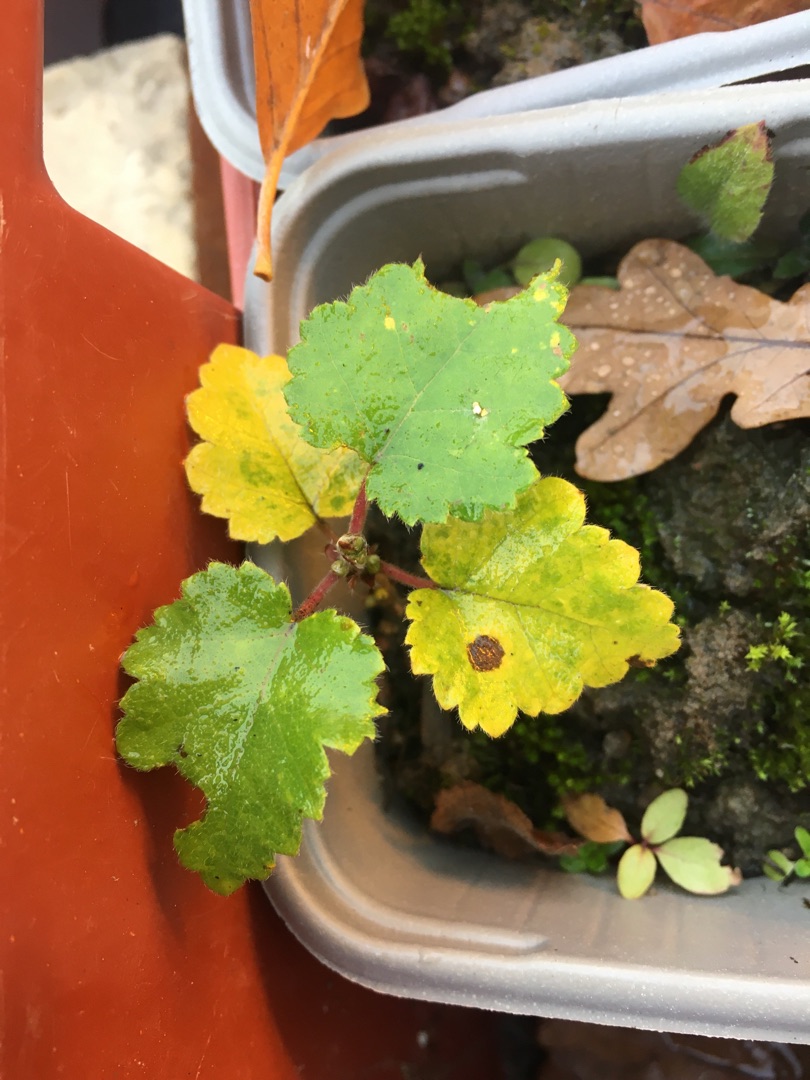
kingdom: Plantae
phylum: Tracheophyta
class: Magnoliopsida
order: Fagales
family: Betulaceae
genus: Betula
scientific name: Betula pubescens
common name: Dun-birk
